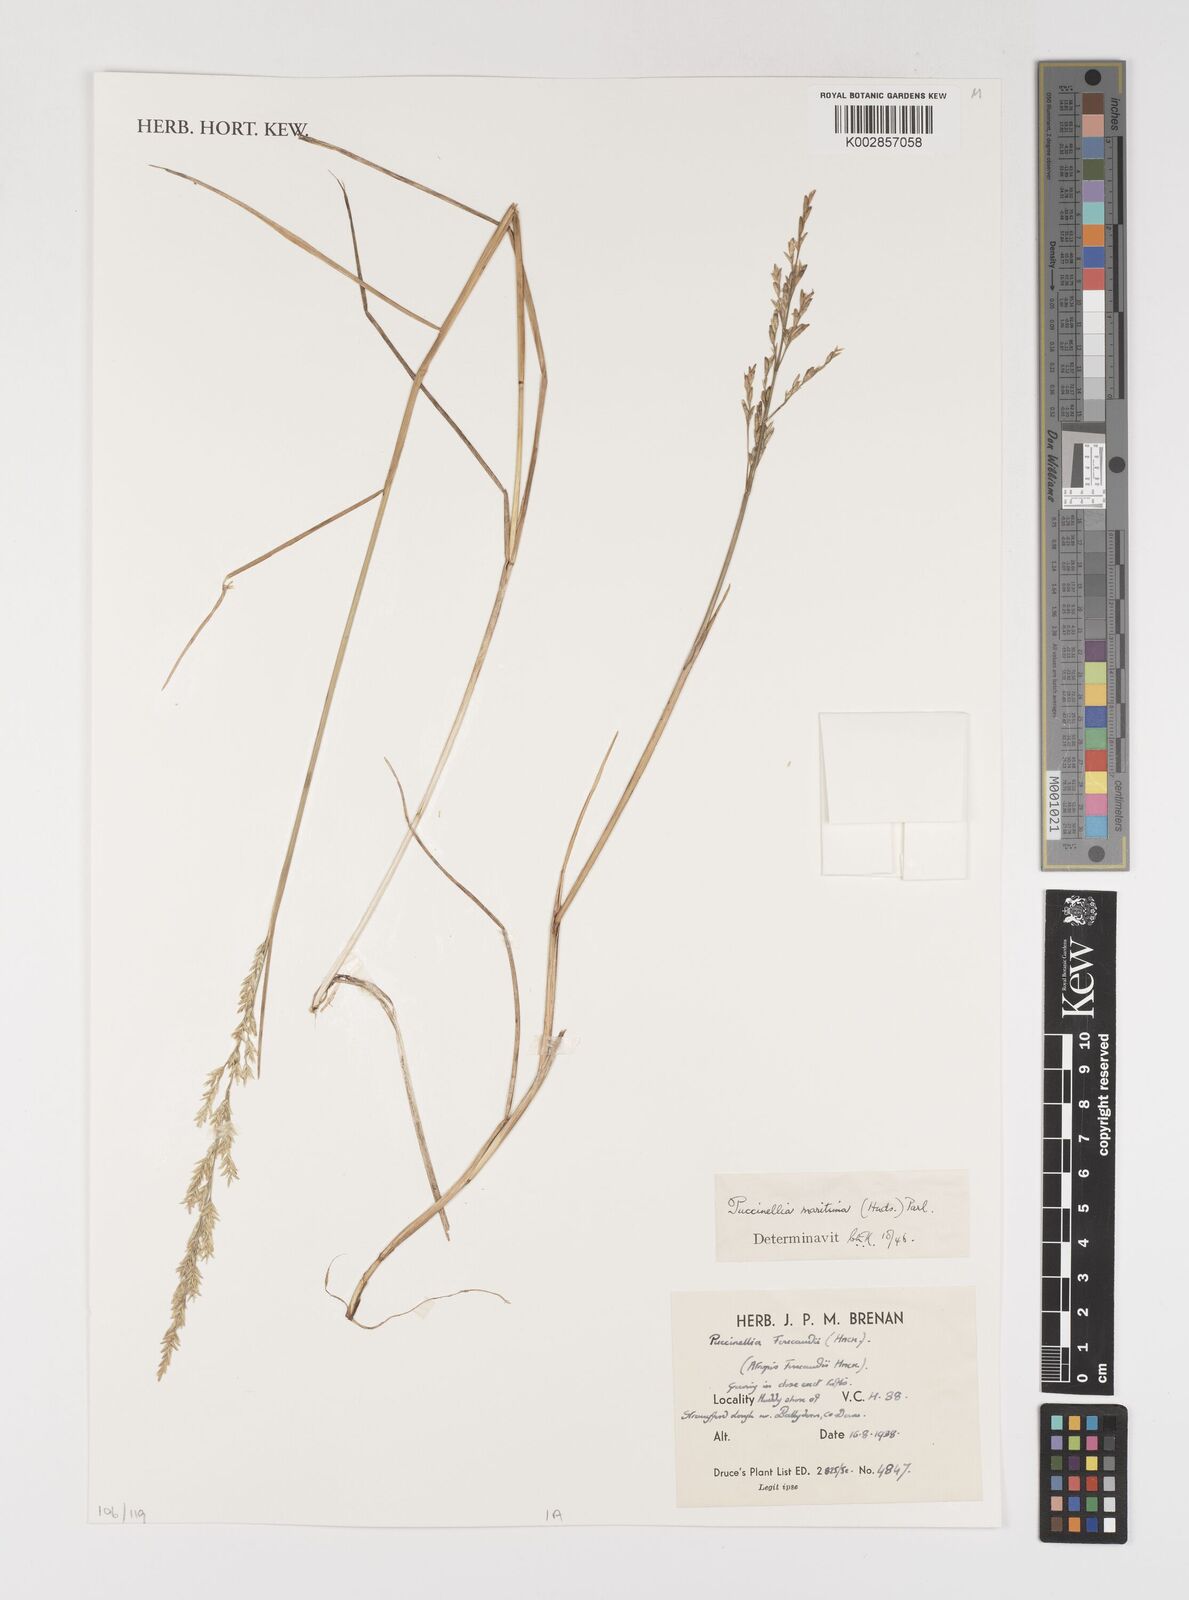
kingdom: Plantae
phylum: Tracheophyta
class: Liliopsida
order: Poales
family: Poaceae
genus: Puccinellia
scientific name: Puccinellia maritima
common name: Common saltmarsh grass
